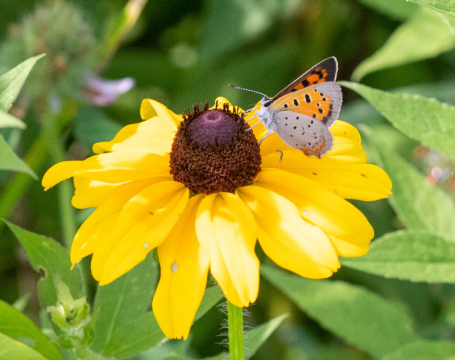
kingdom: Animalia
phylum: Arthropoda
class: Insecta
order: Lepidoptera
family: Lycaenidae
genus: Lycaena
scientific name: Lycaena phlaeas
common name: American Copper
